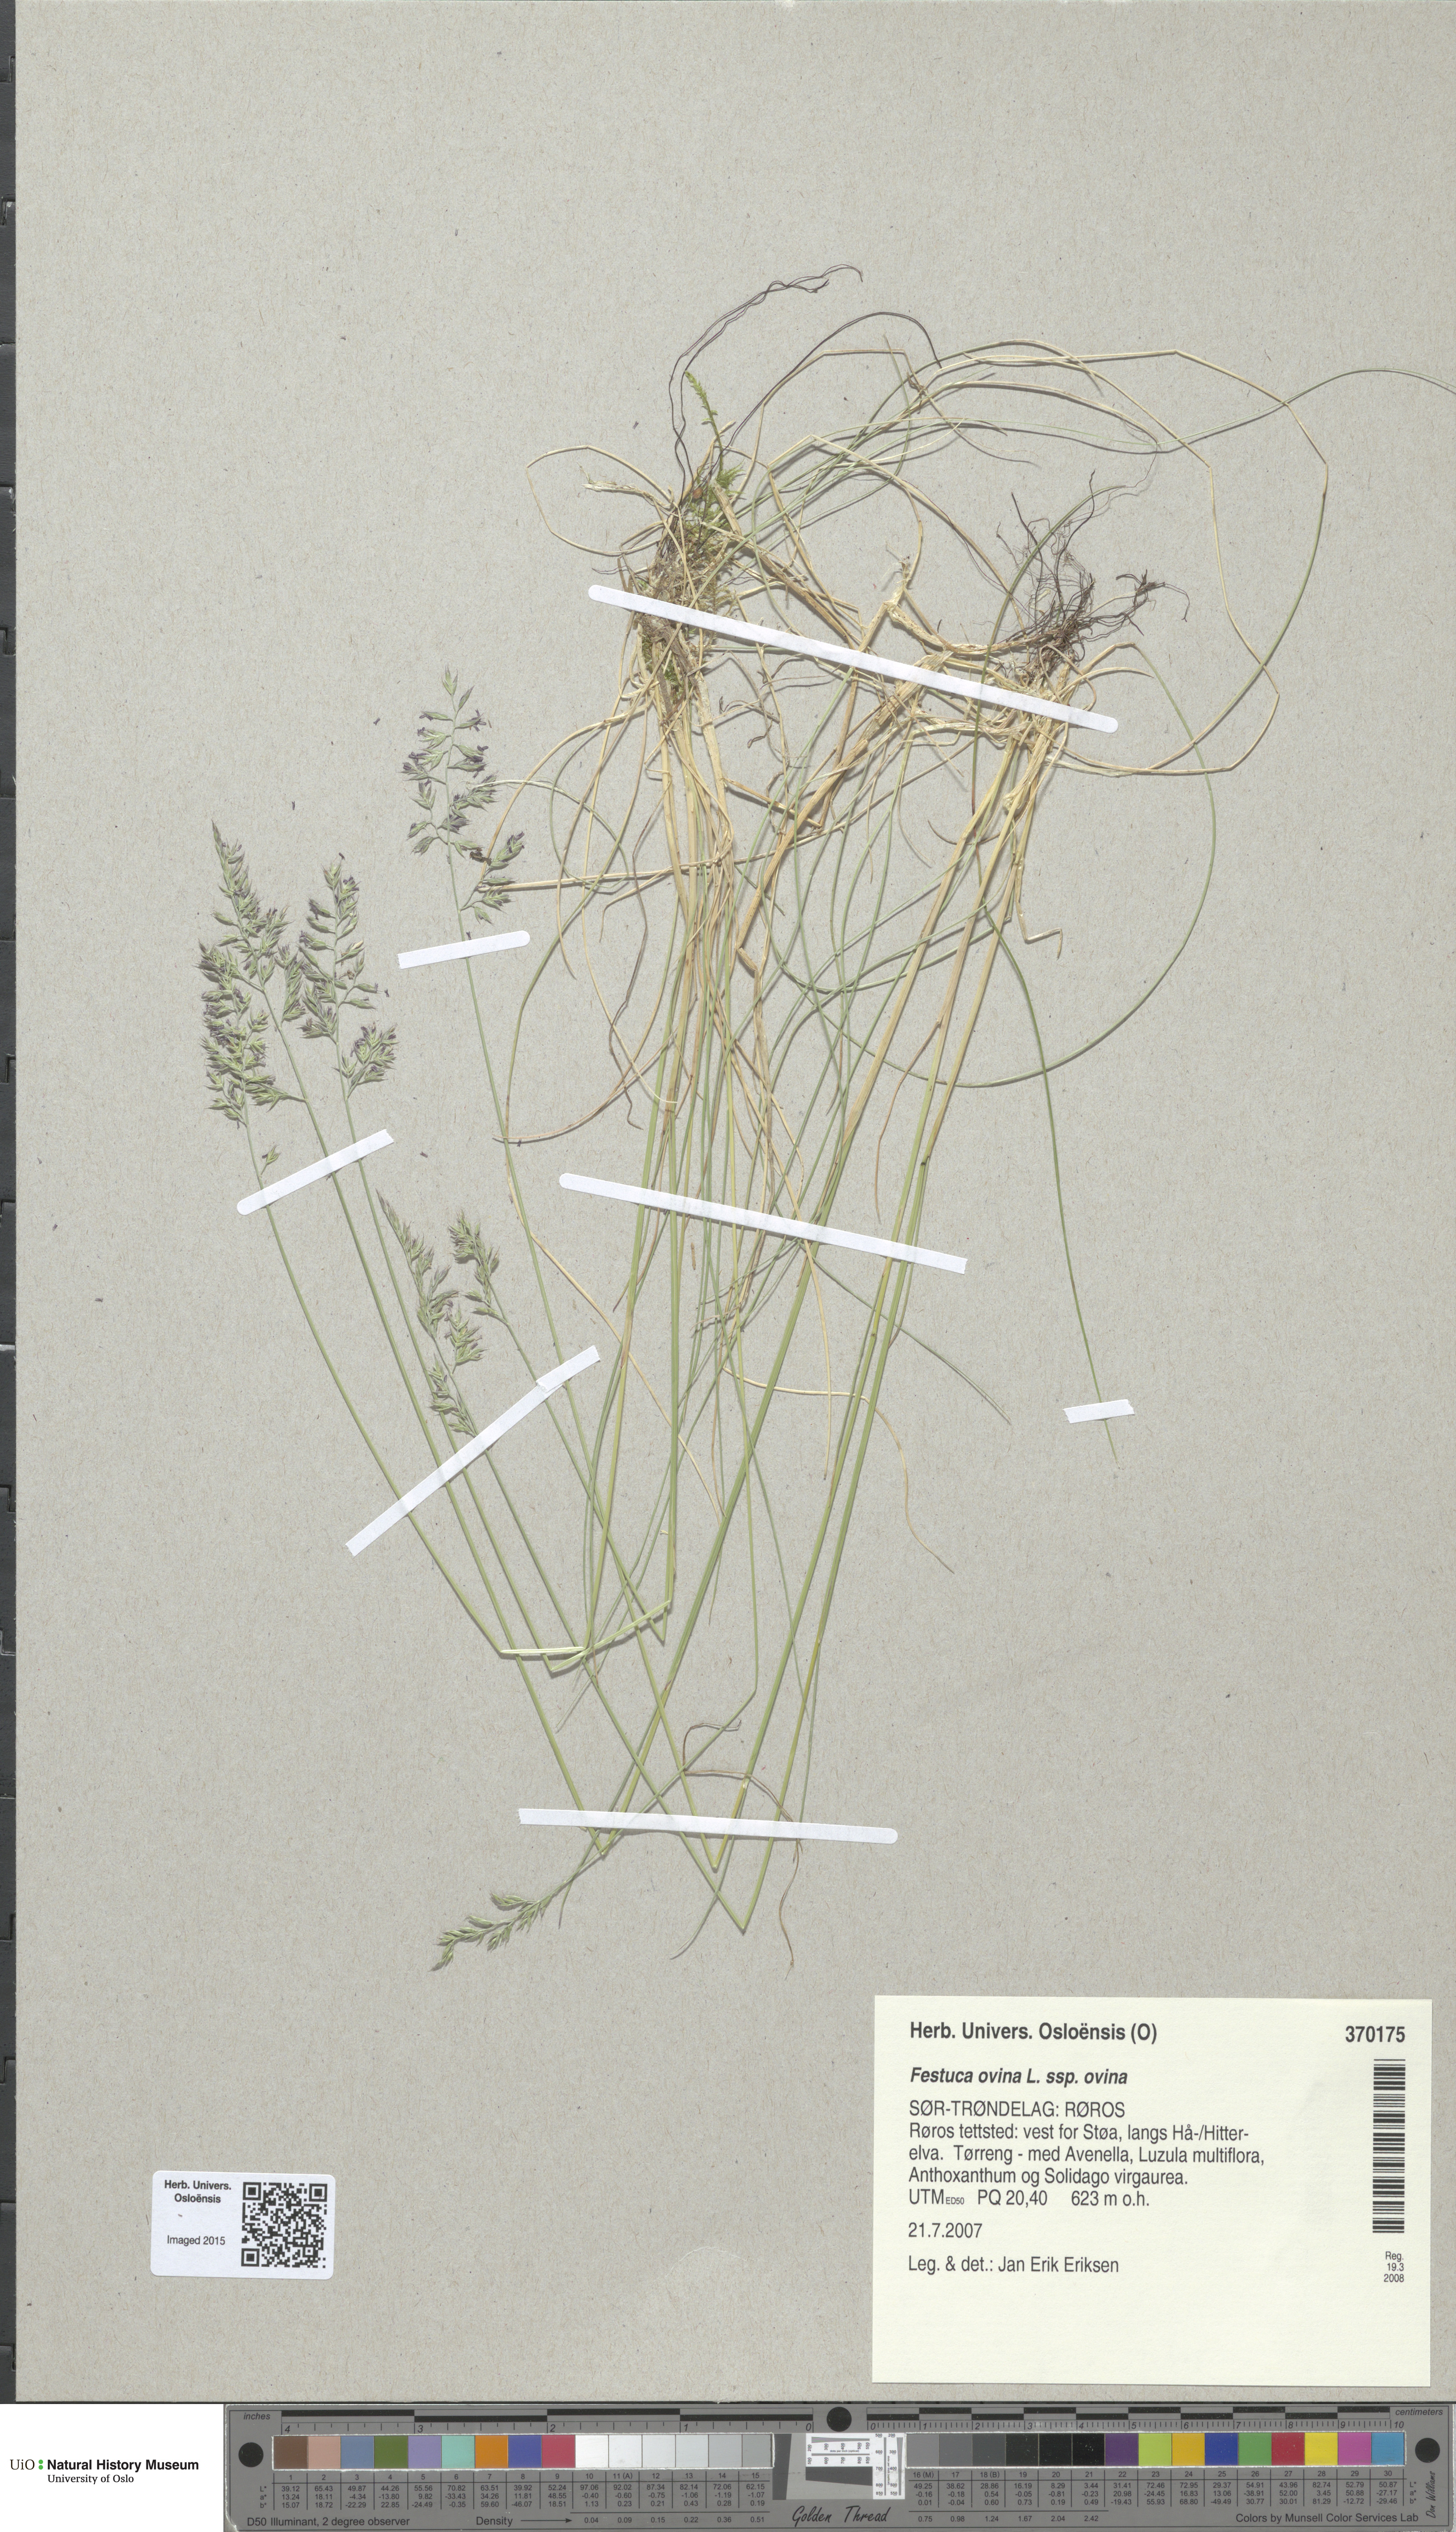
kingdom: Plantae
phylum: Tracheophyta
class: Liliopsida
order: Poales
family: Poaceae
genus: Festuca
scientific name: Festuca ovina
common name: Sheep fescue
